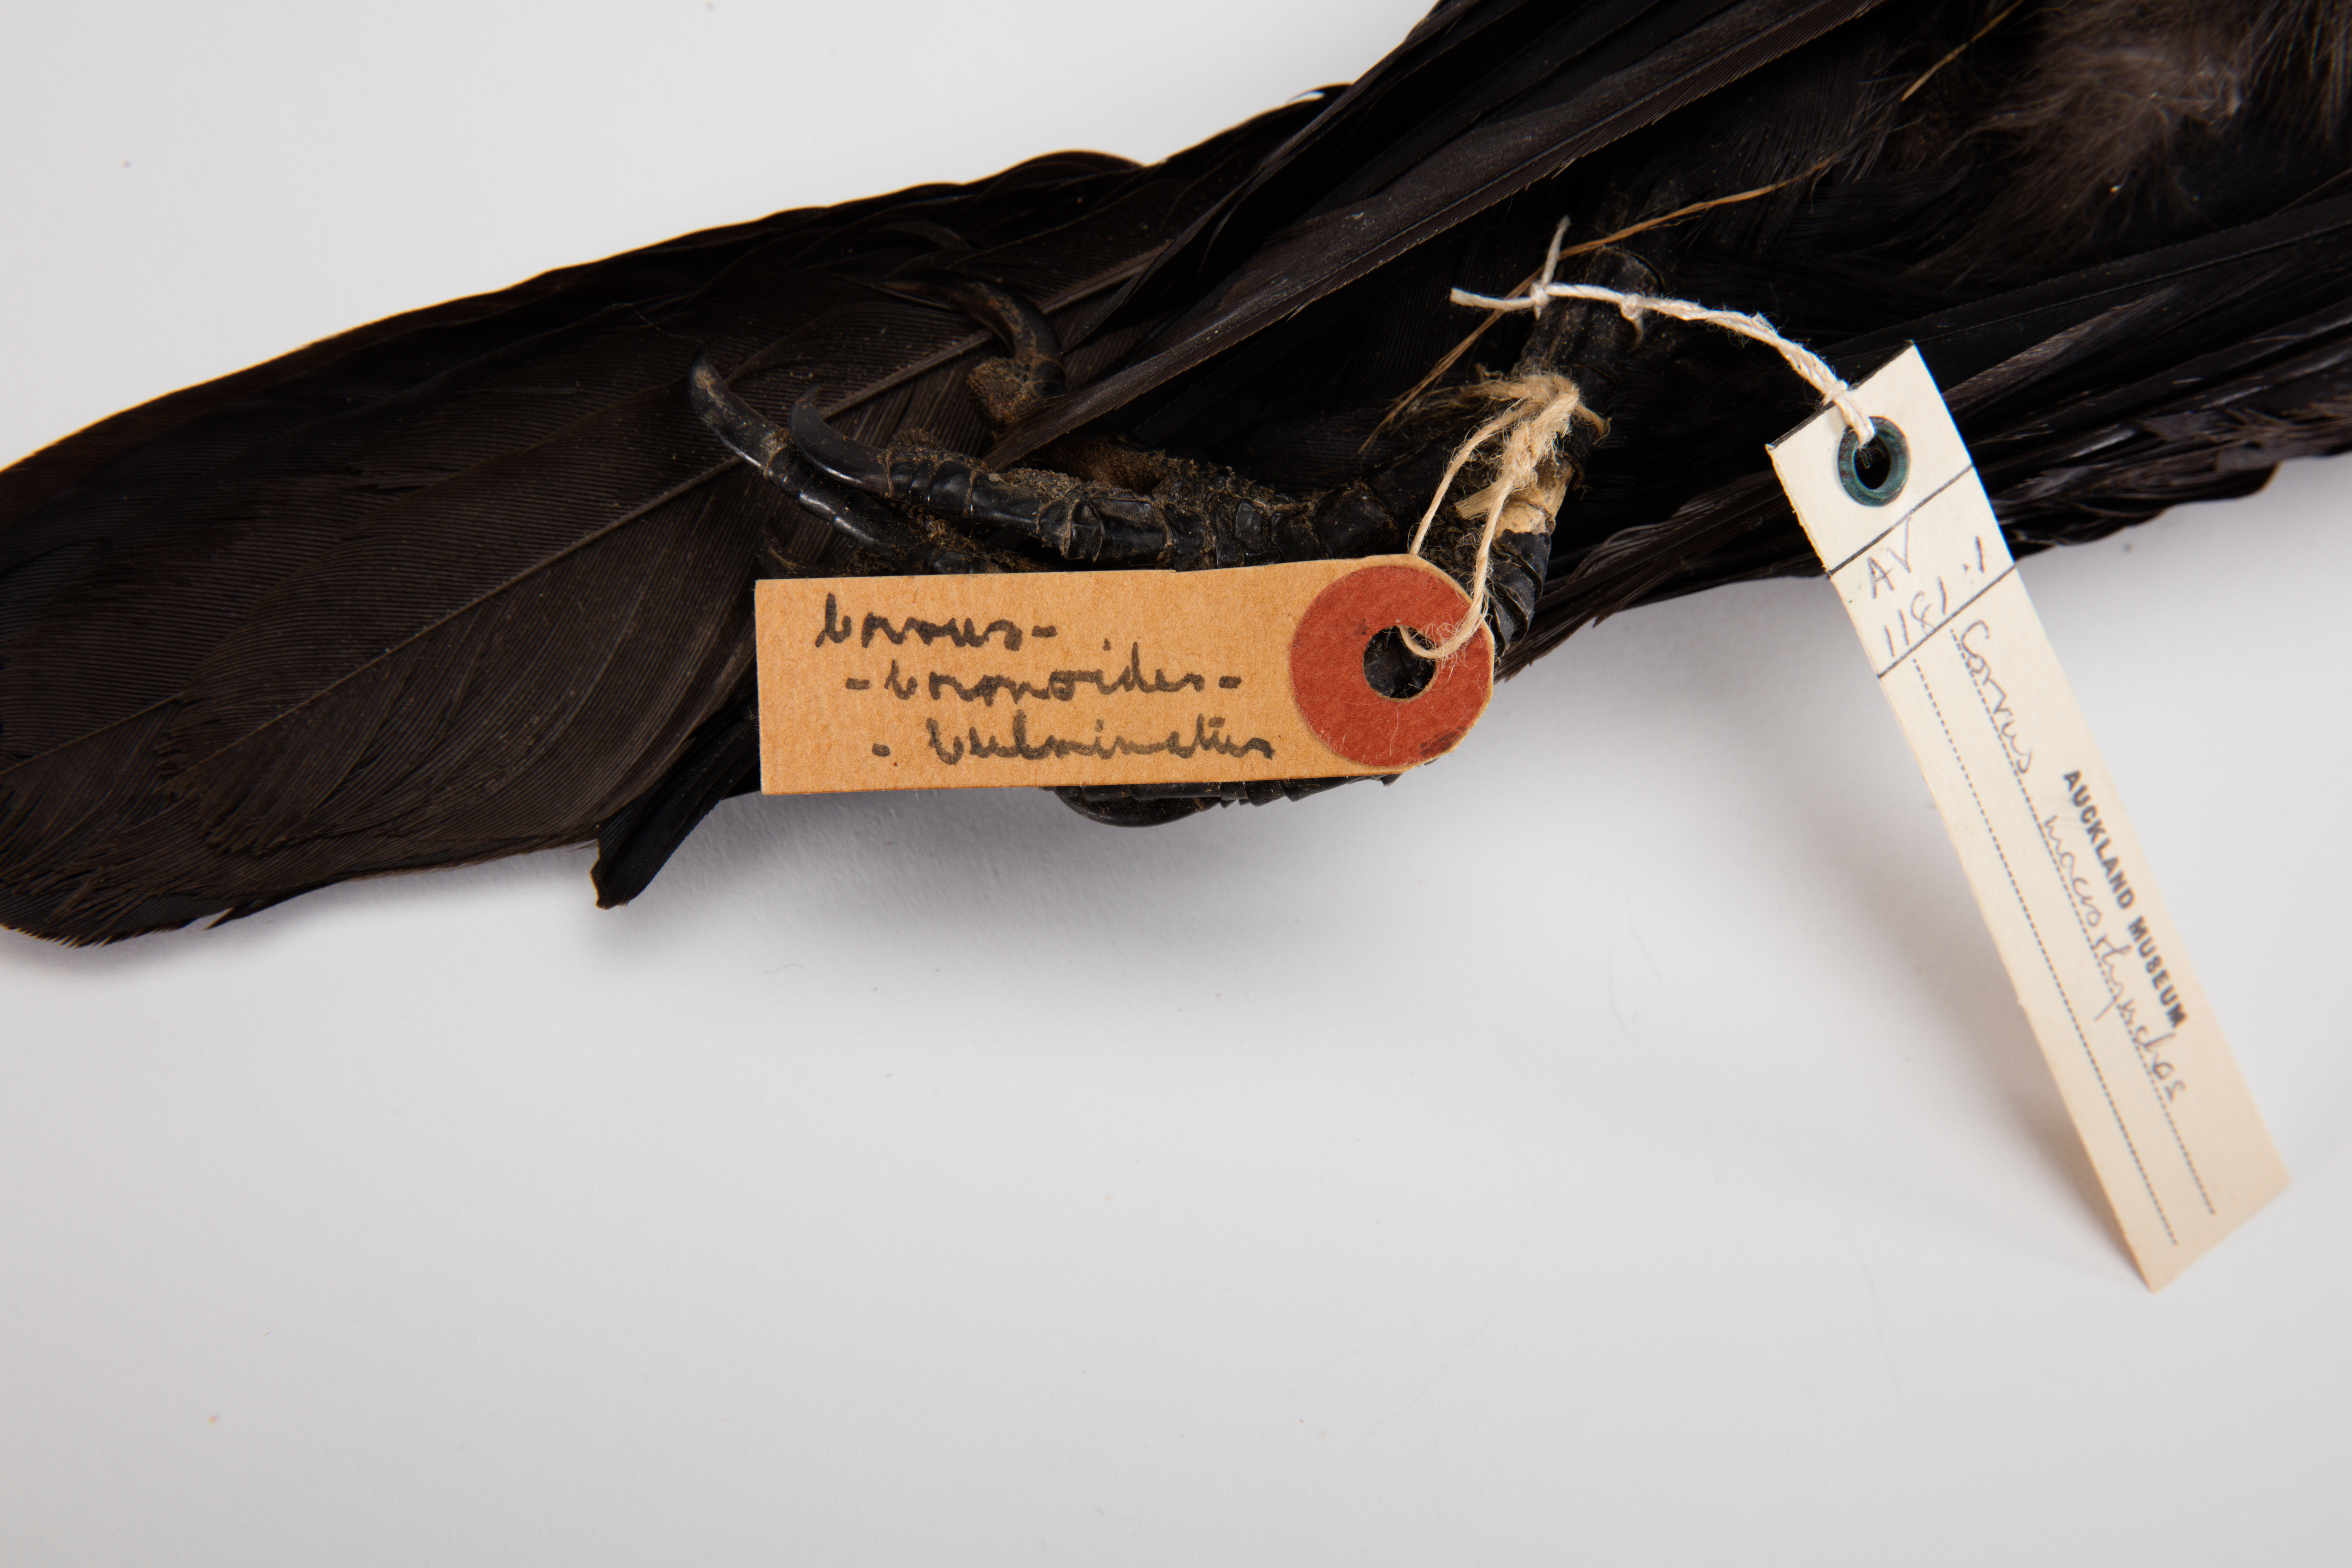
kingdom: Animalia
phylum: Chordata
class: Aves
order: Passeriformes
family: Corvidae
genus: Corvus
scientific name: Corvus macrorhynchos
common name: Large-billed crow
